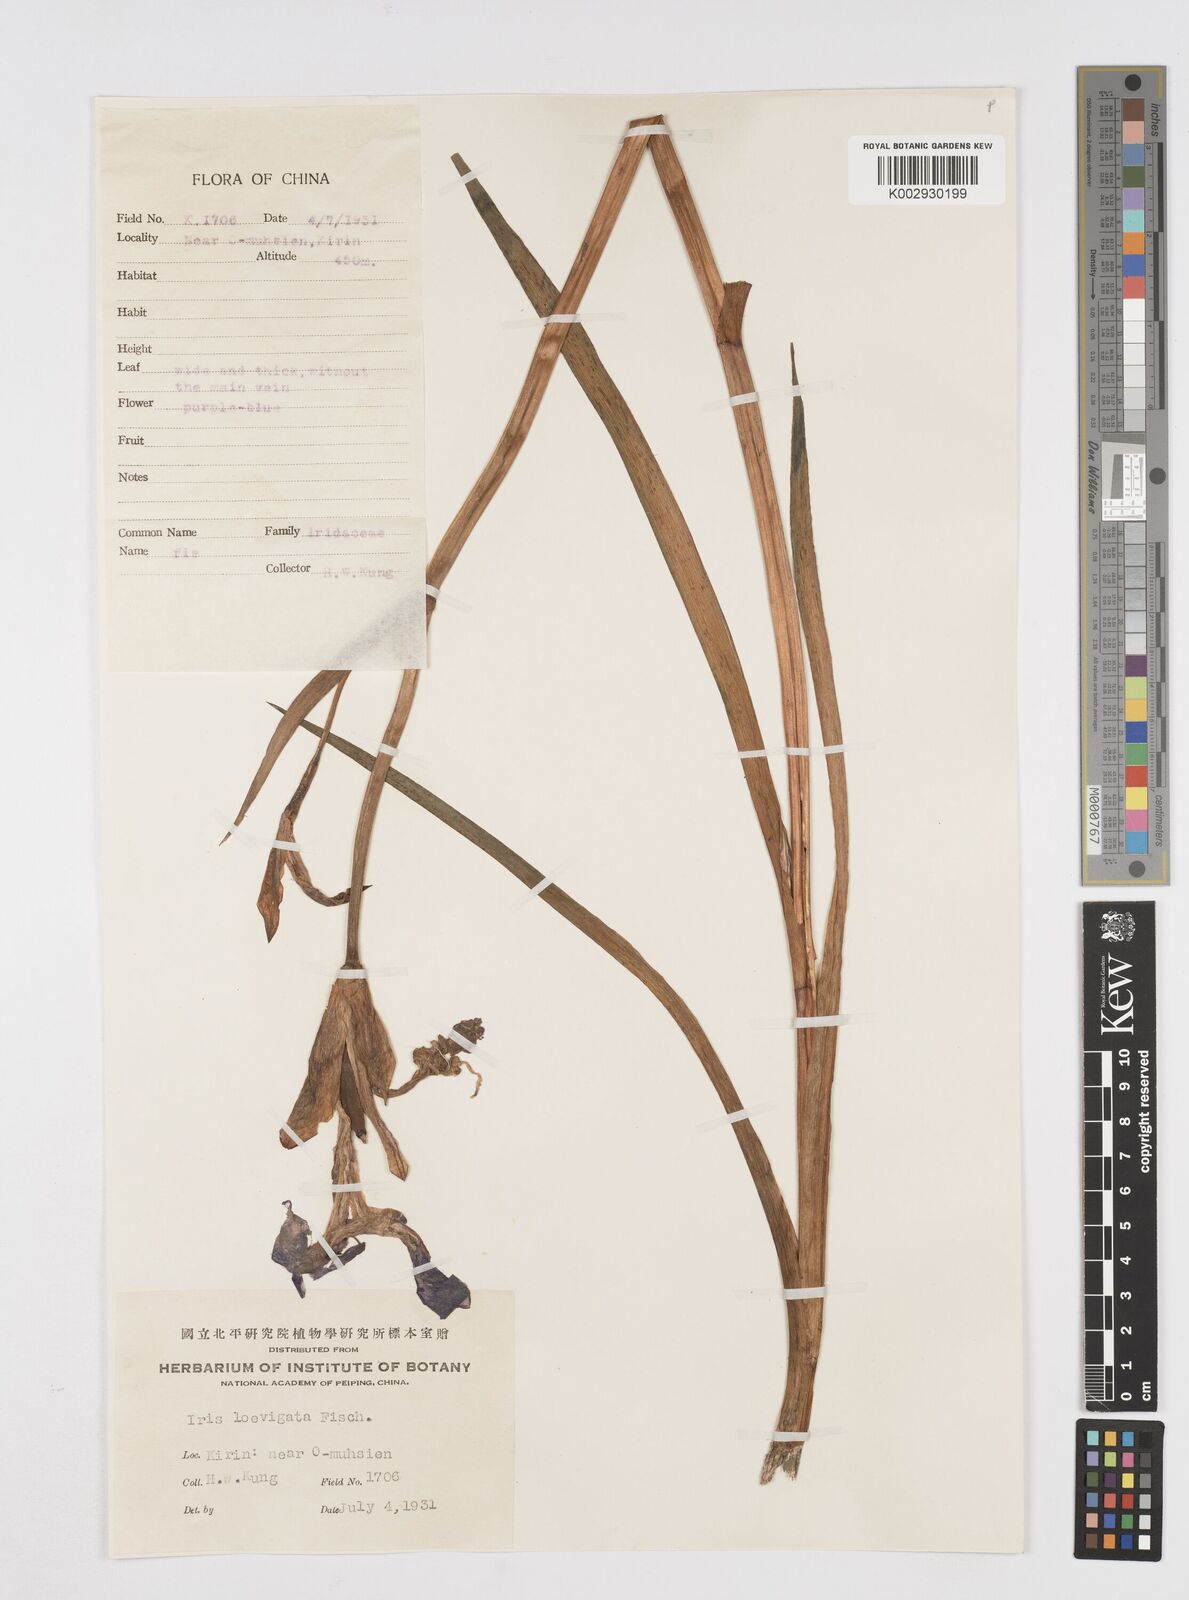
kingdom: Plantae
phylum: Tracheophyta
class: Liliopsida
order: Asparagales
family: Iridaceae
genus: Iris
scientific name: Iris laevigata
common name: Japanese iris
